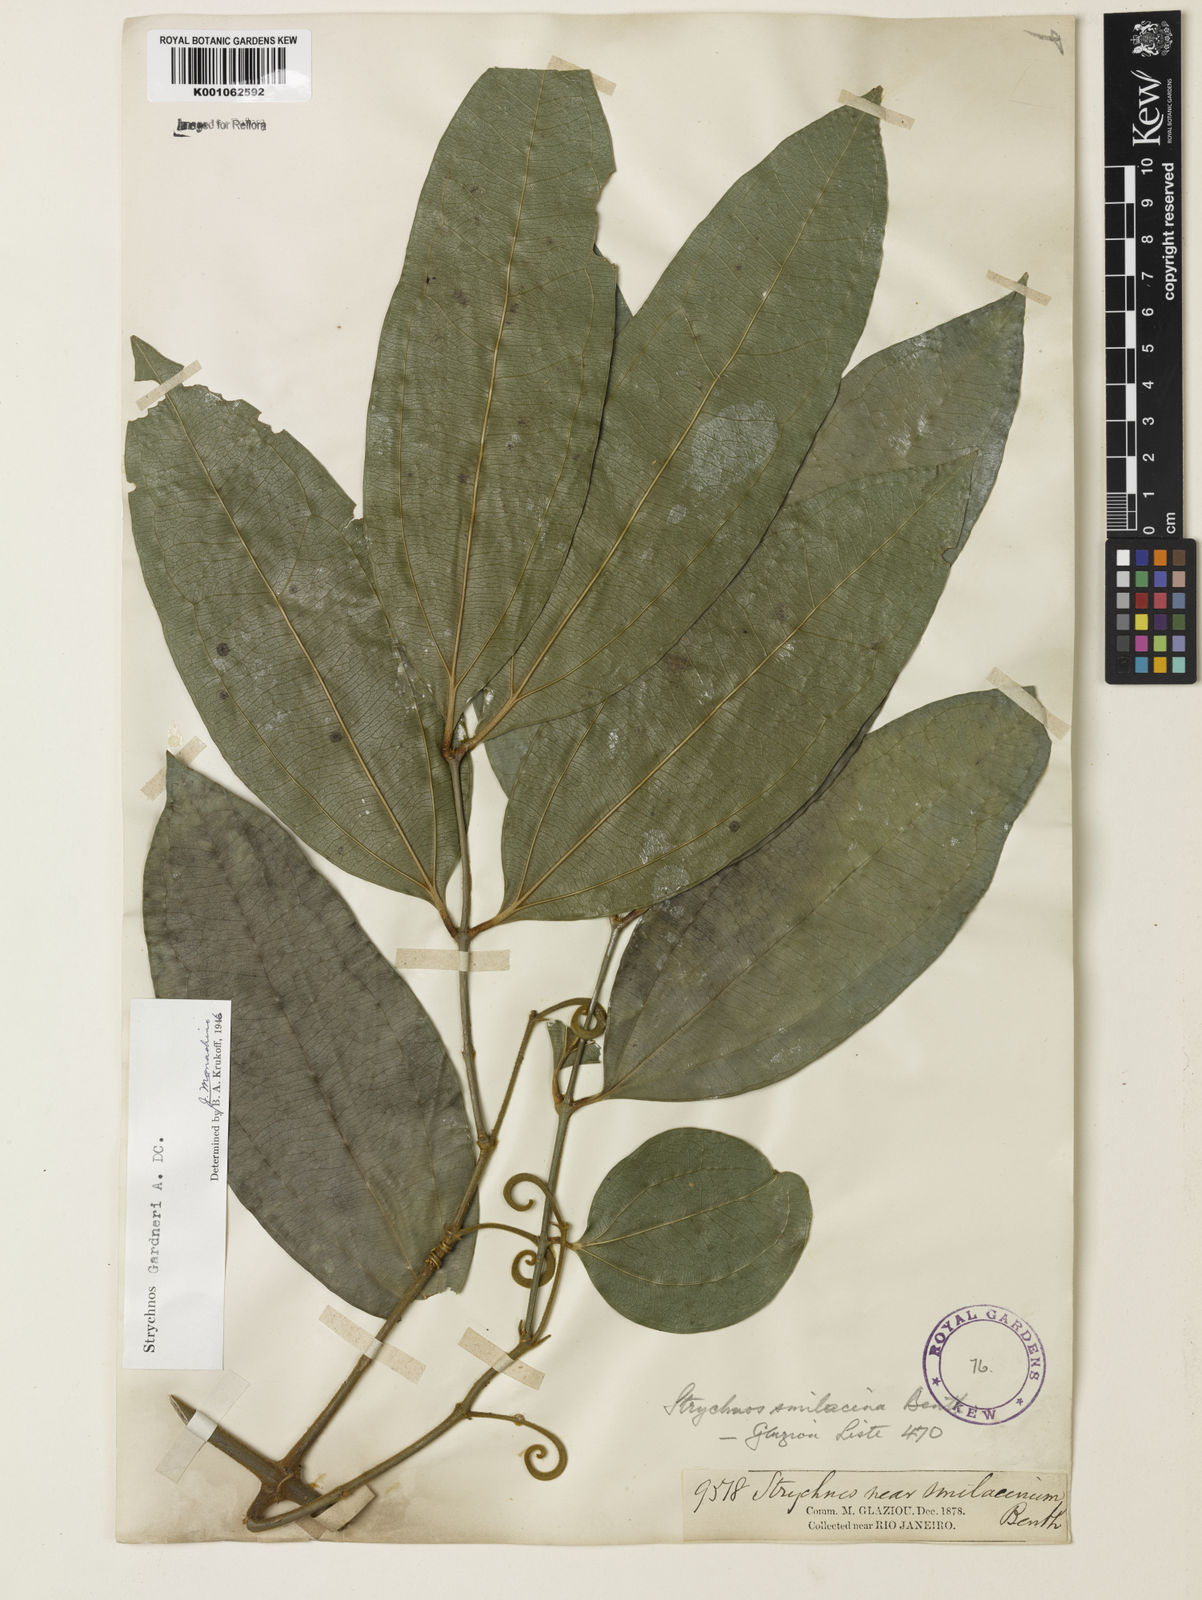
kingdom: Plantae
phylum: Tracheophyta
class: Magnoliopsida
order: Gentianales
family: Loganiaceae
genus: Strychnos
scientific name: Strychnos gardneri
